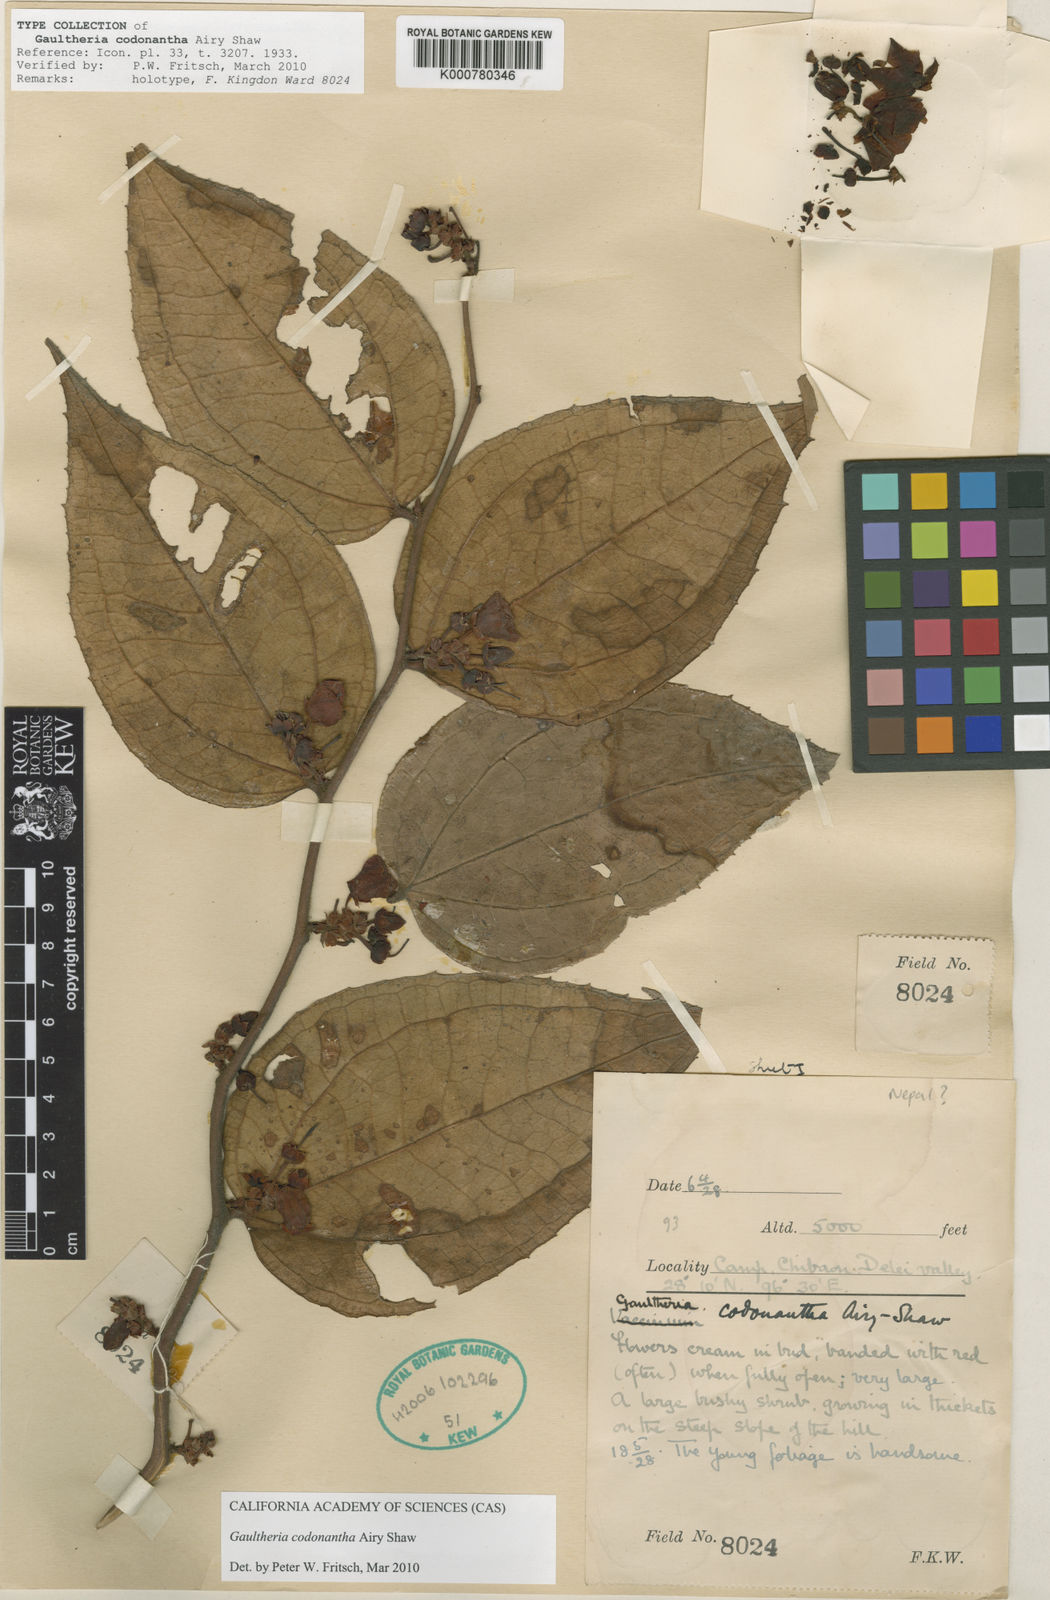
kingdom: Plantae
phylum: Tracheophyta
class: Magnoliopsida
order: Ericales
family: Ericaceae
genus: Gaultheria
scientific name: Gaultheria codonantha
